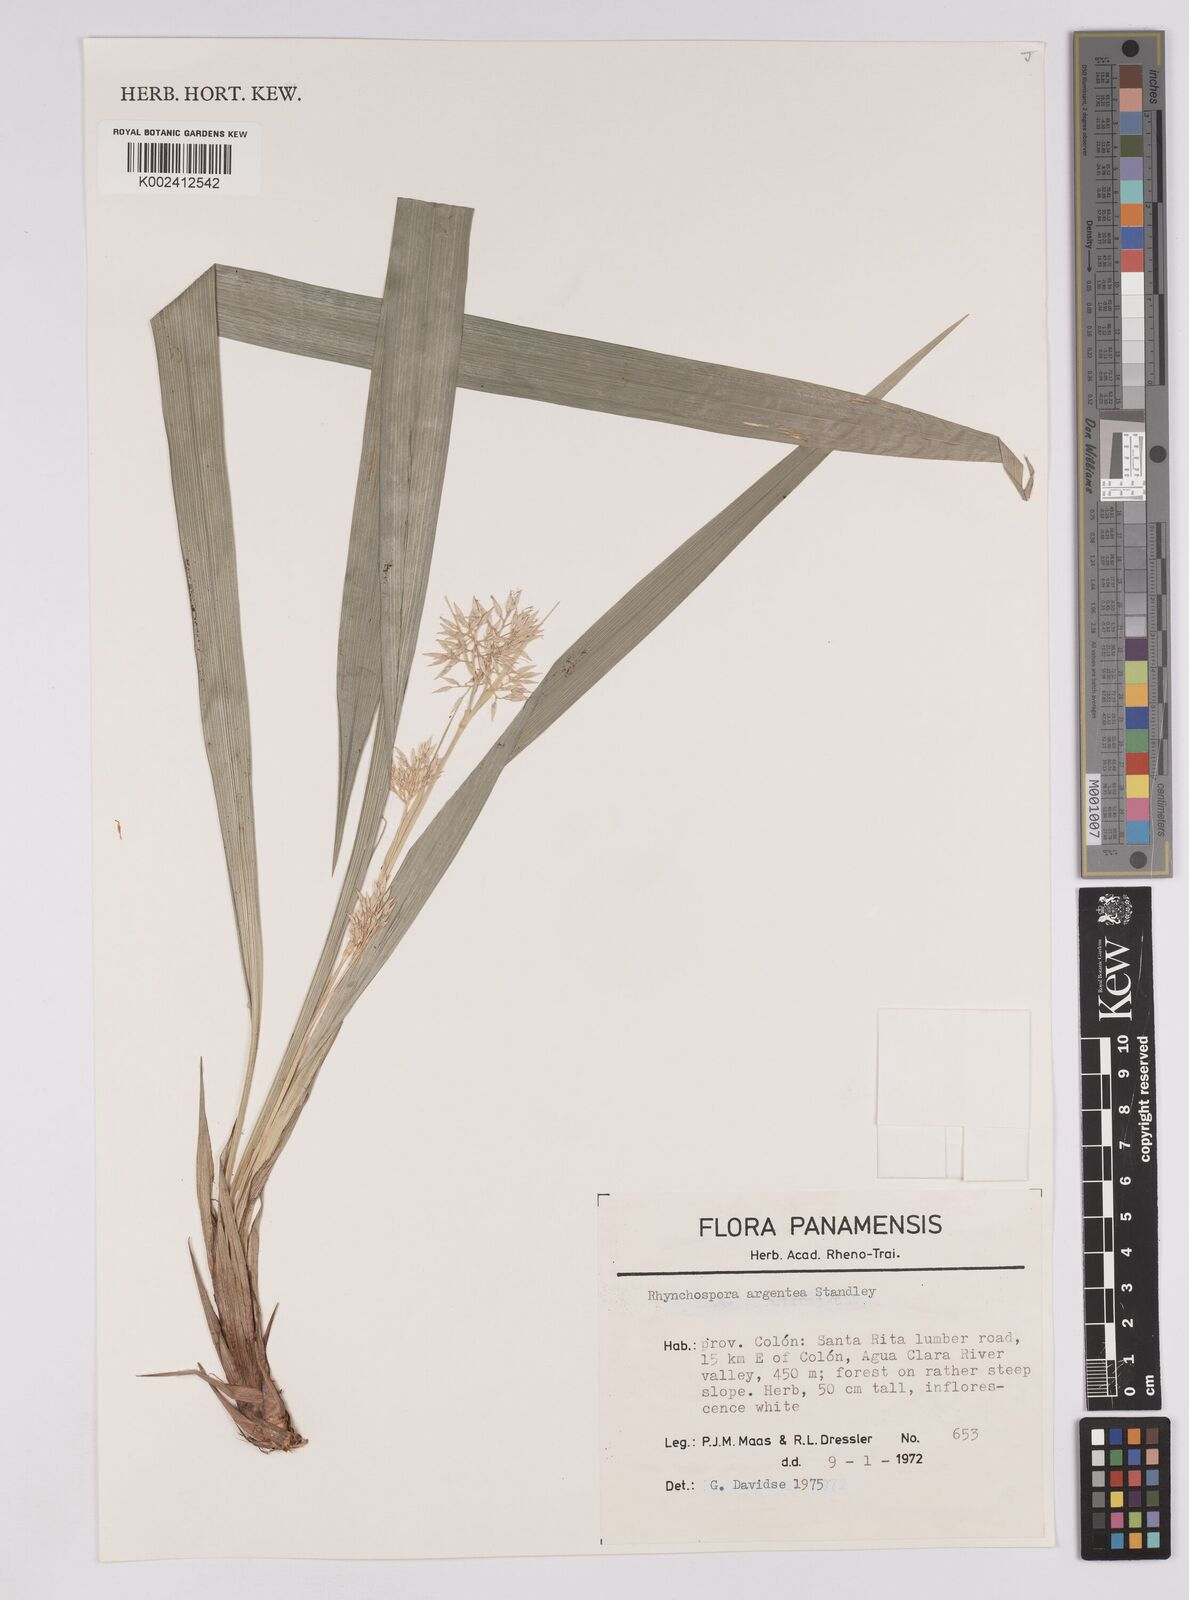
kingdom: Plantae
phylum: Tracheophyta
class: Liliopsida
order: Poales
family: Cyperaceae
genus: Rhynchospora
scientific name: Rhynchospora argentea
